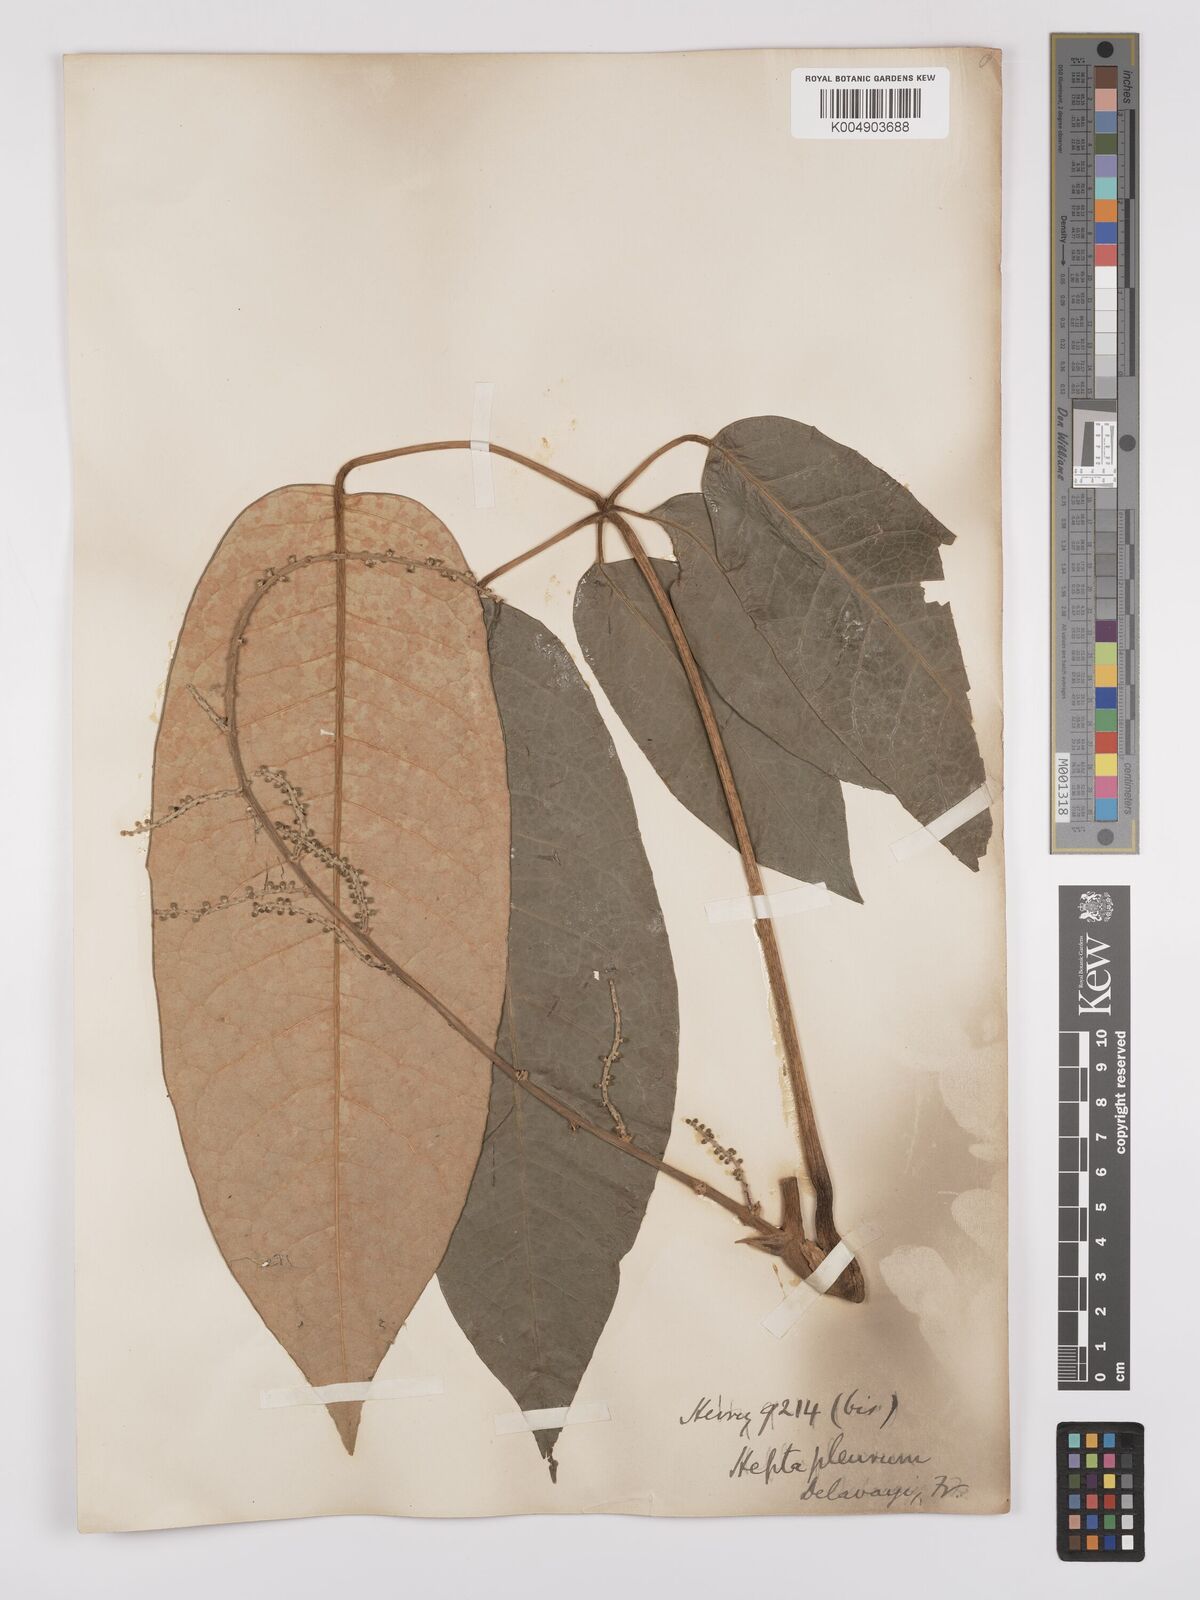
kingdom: Plantae
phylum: Tracheophyta
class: Magnoliopsida
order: Apiales
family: Araliaceae
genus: Heptapleurum
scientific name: Heptapleurum delavayi
